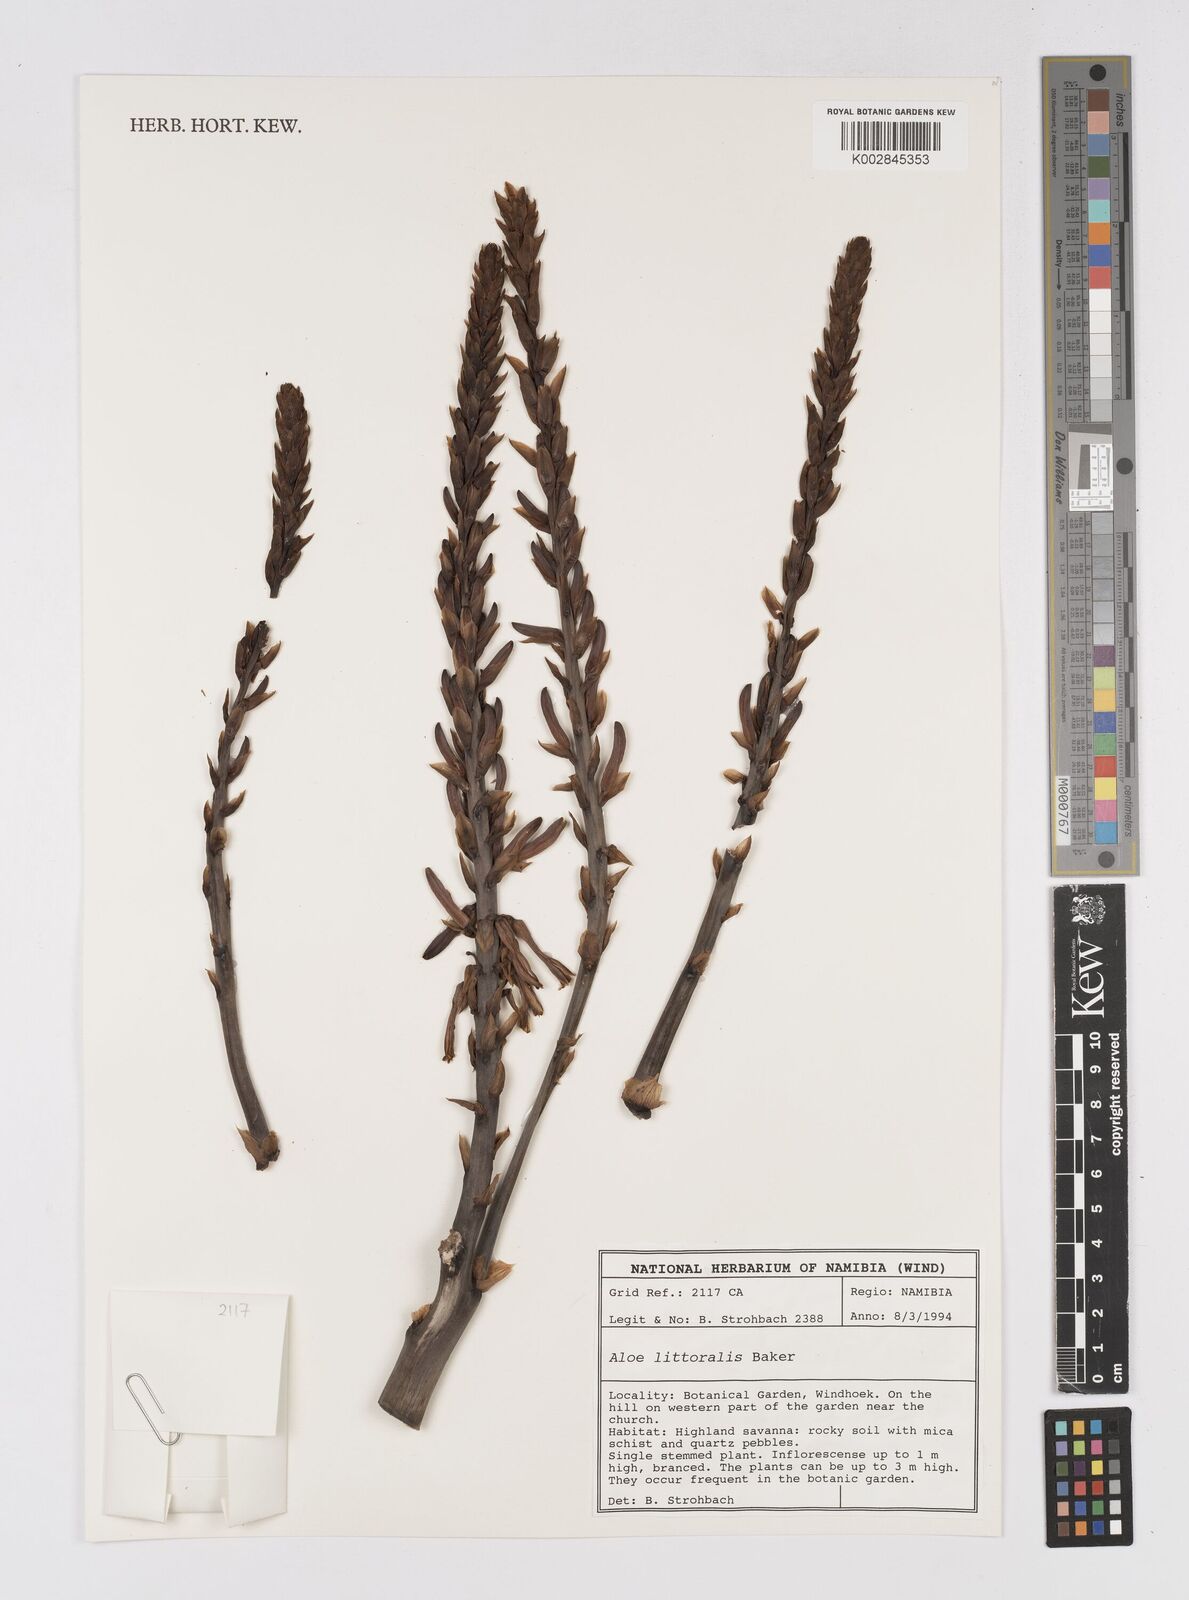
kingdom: Plantae
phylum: Tracheophyta
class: Liliopsida
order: Asparagales
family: Asphodelaceae
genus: Aloe
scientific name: Aloe littoralis
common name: Luanda tree aloe
